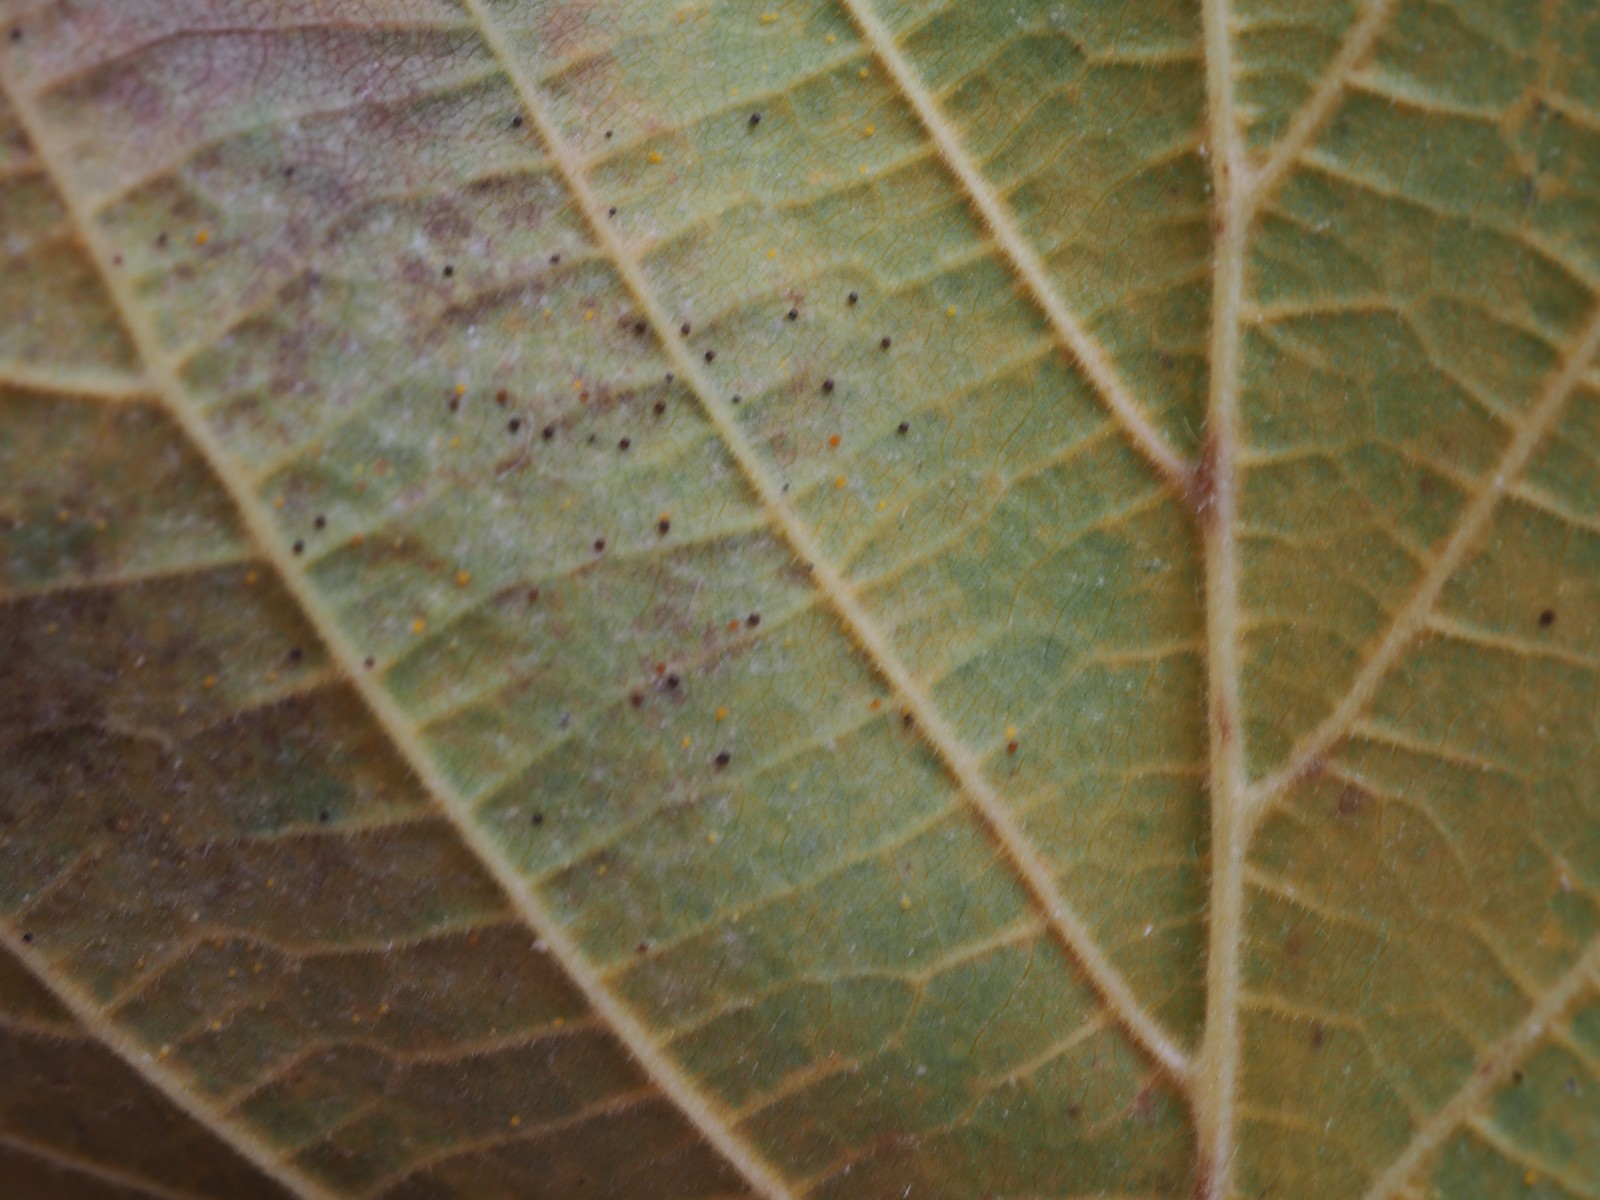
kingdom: Fungi
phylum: Ascomycota
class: Leotiomycetes
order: Helotiales
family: Erysiphaceae
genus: Phyllactinia
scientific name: Phyllactinia guttata
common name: hassel-meldug
